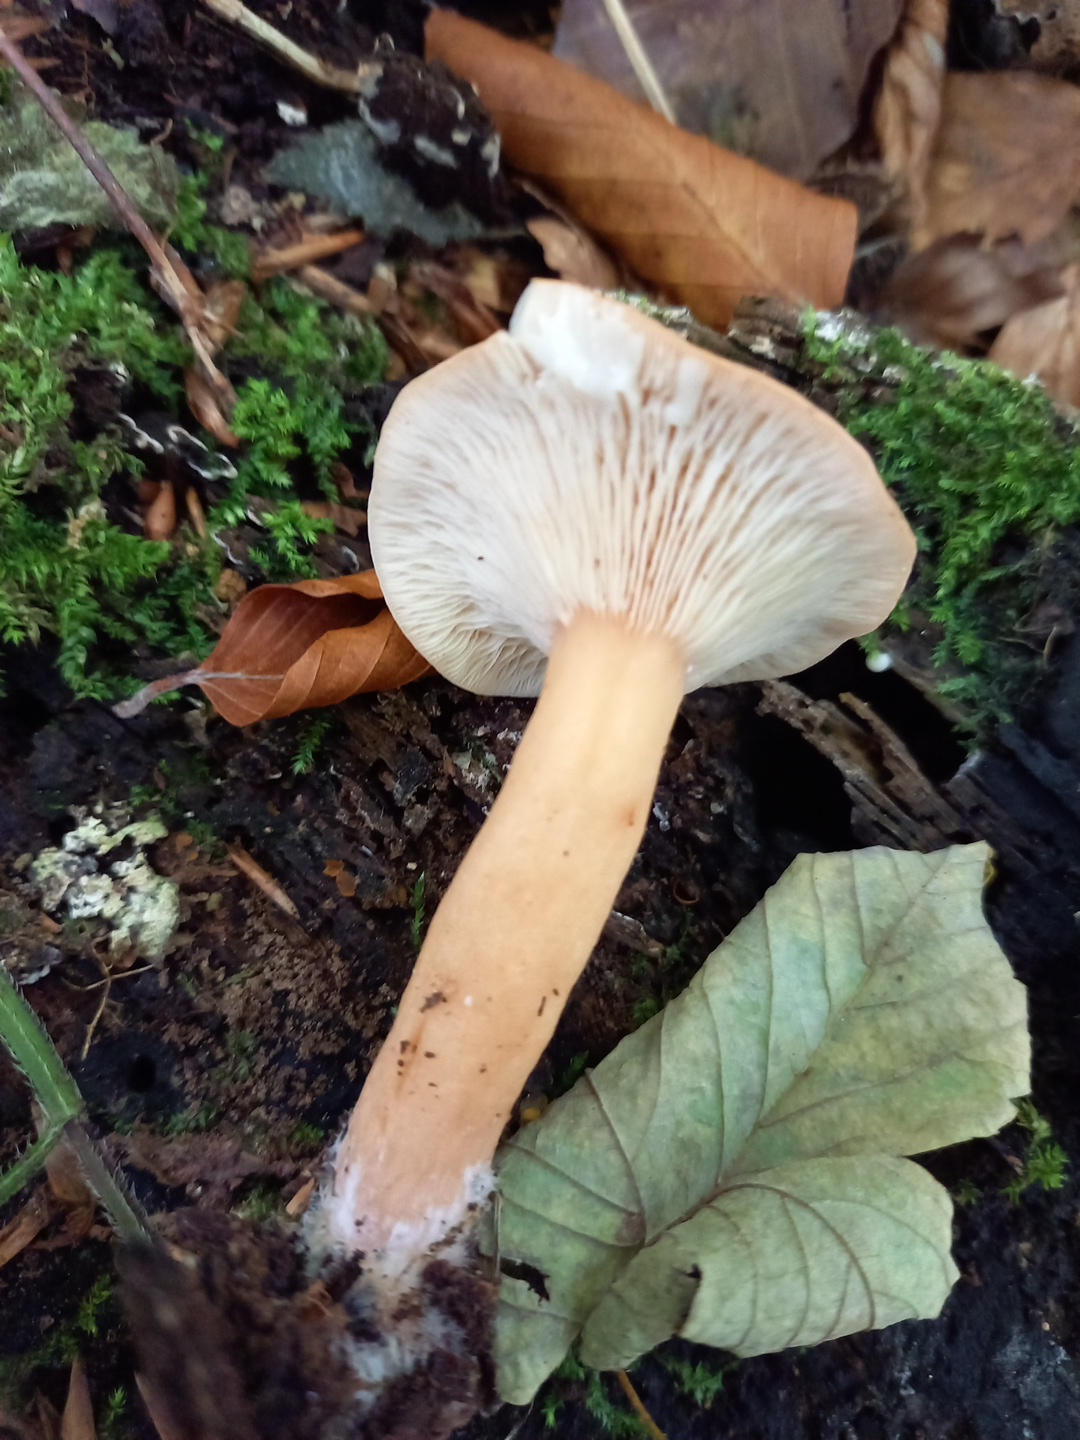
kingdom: Fungi
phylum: Basidiomycota
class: Agaricomycetes
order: Russulales
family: Russulaceae
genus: Lactarius
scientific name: Lactarius subdulcis
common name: sødlig mælkehat
